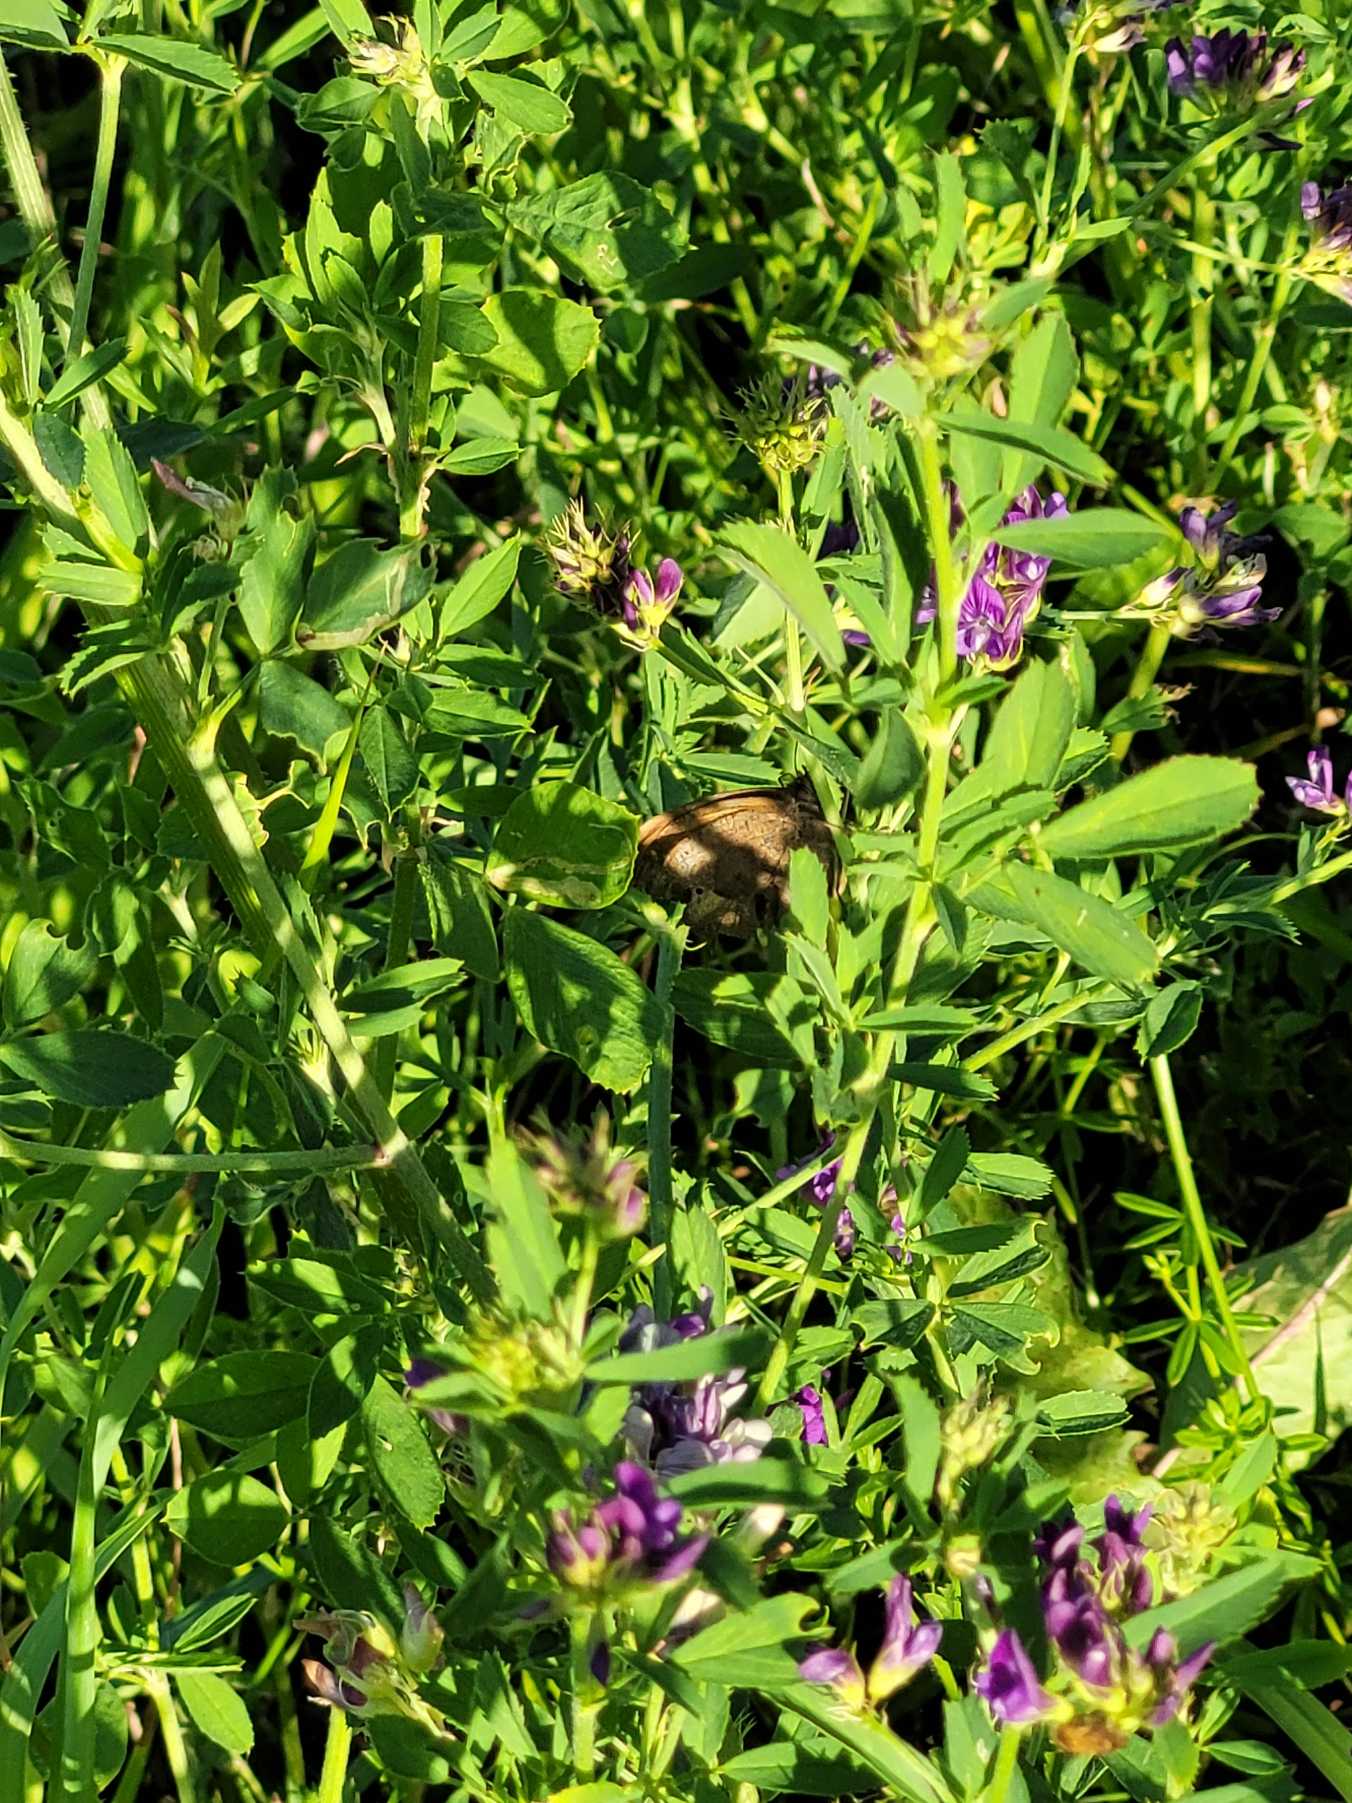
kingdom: Animalia
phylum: Arthropoda
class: Insecta
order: Lepidoptera
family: Nymphalidae
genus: Maniola
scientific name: Maniola jurtina
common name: Græsrandøje
